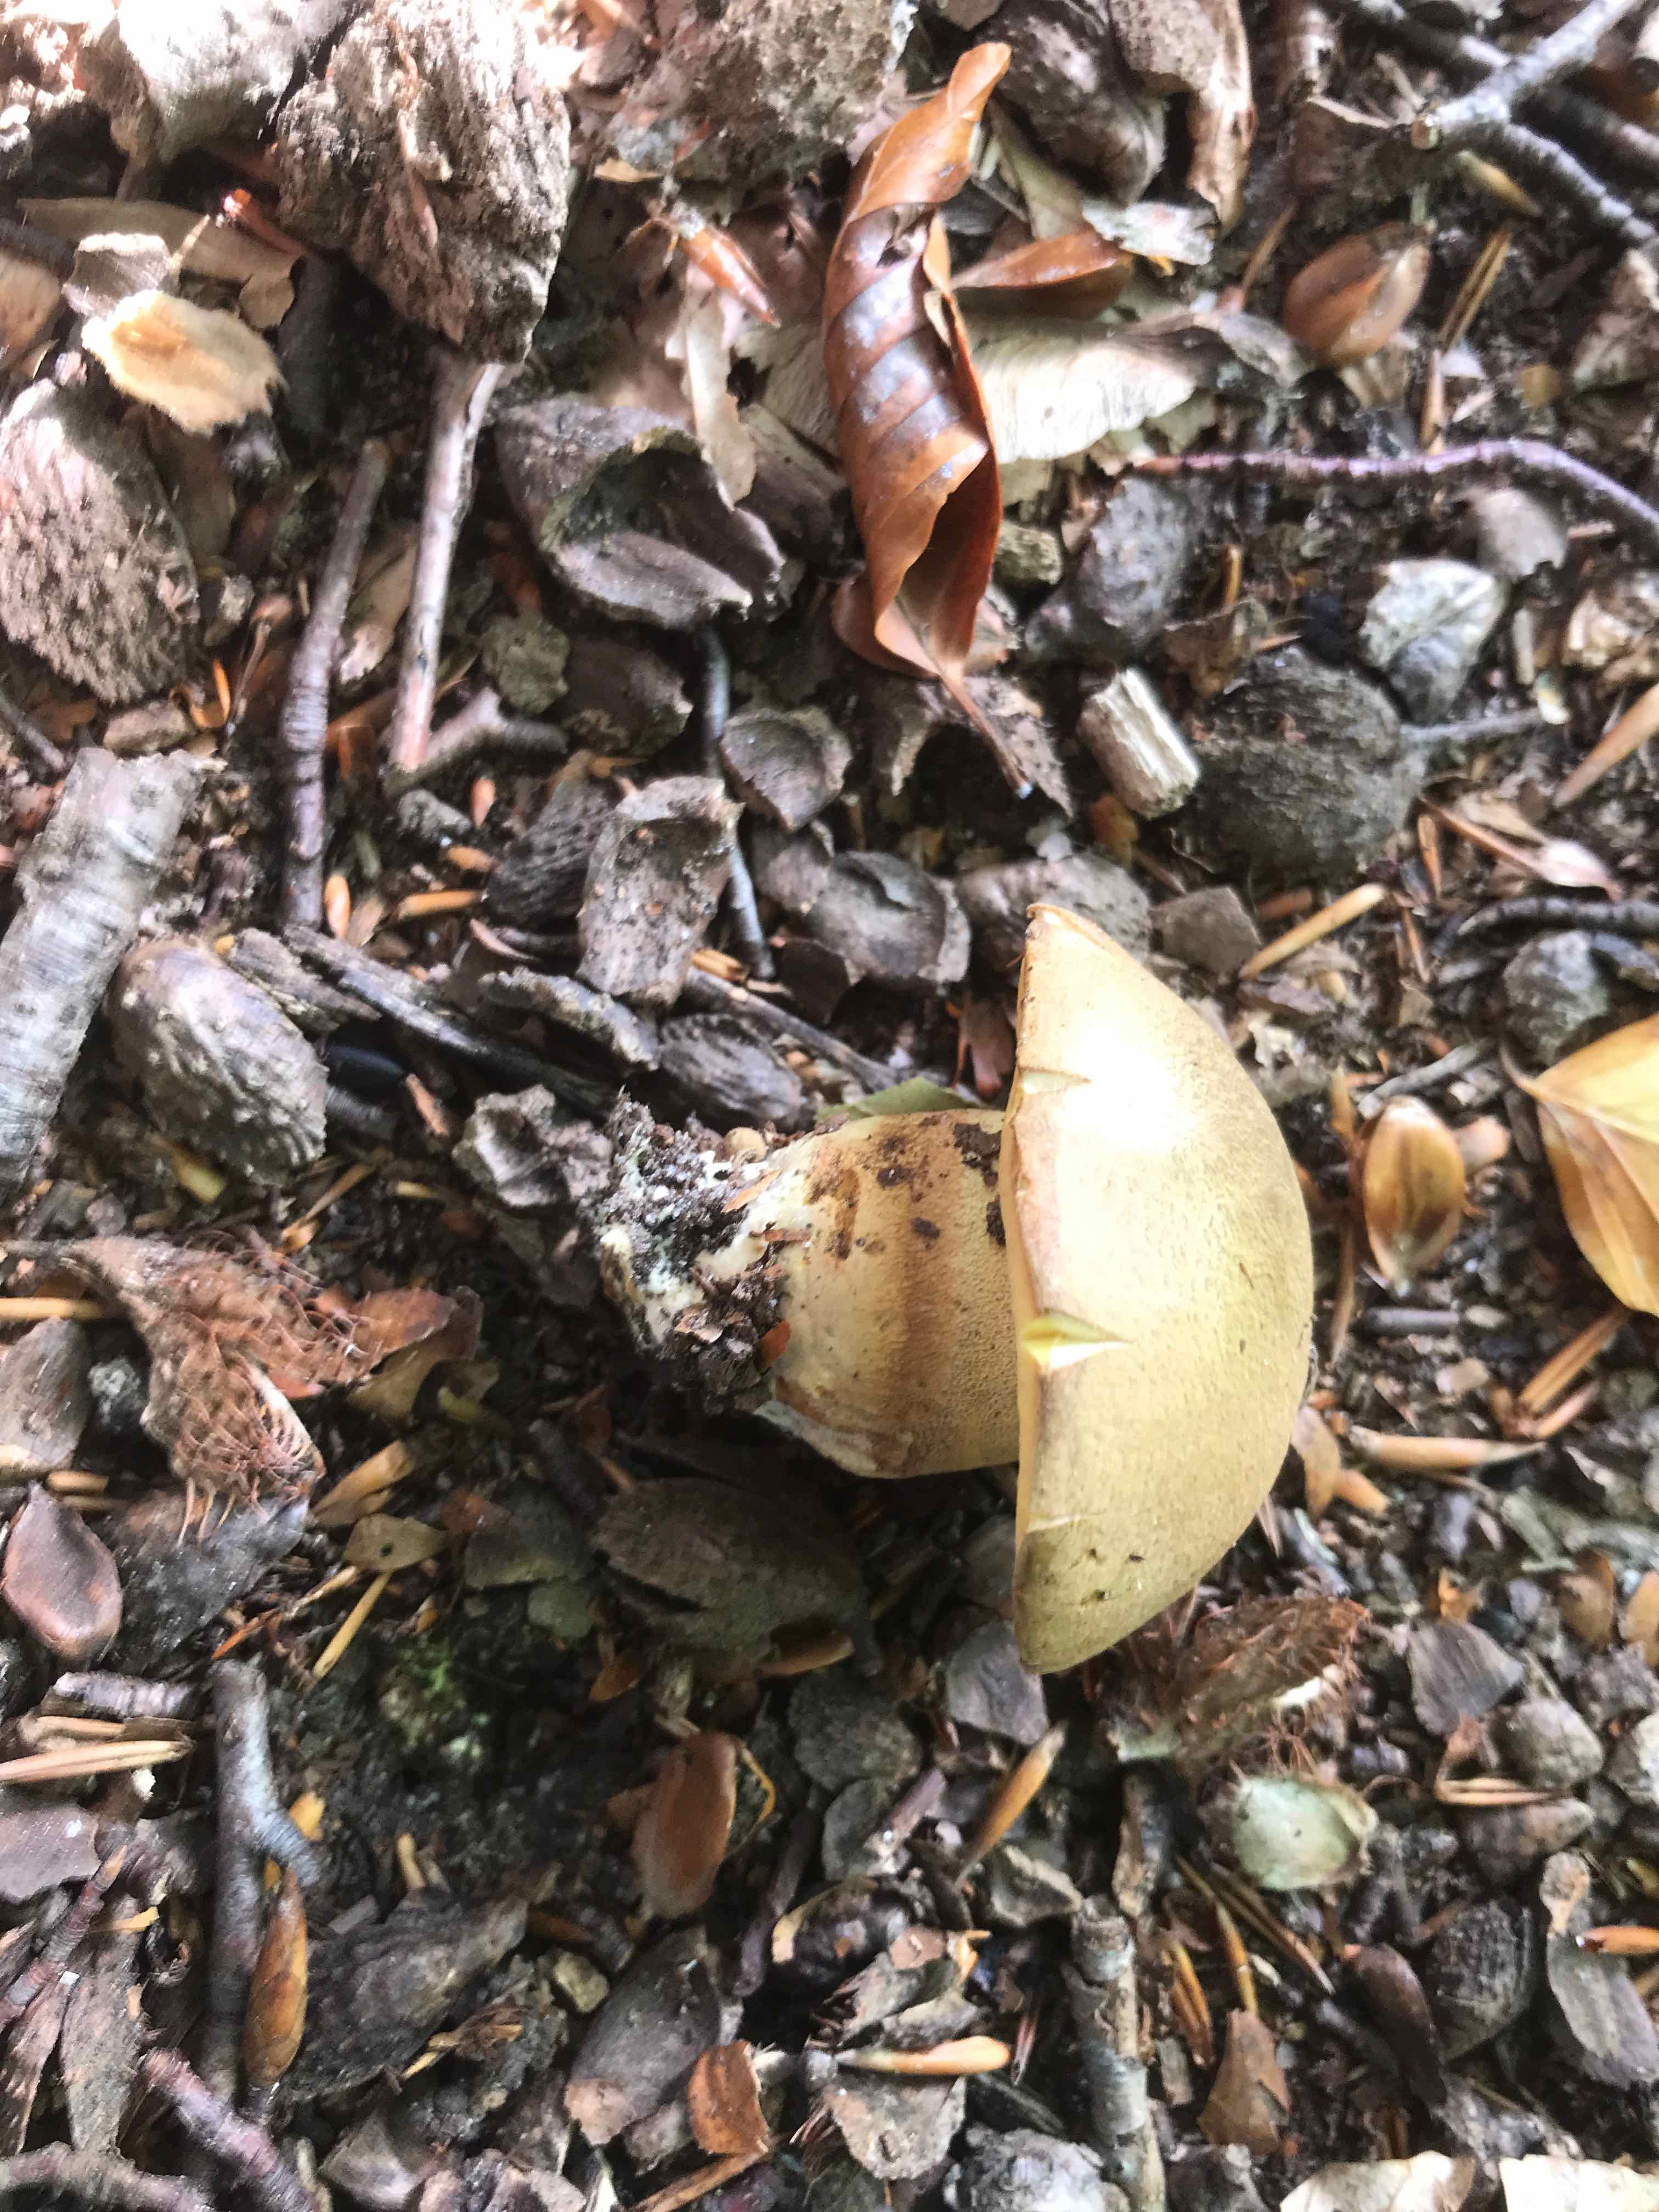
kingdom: Fungi
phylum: Basidiomycota
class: Agaricomycetes
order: Boletales
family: Boletaceae
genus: Butyriboletus
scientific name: Butyriboletus appendiculatus
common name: tenstokket rørhat
